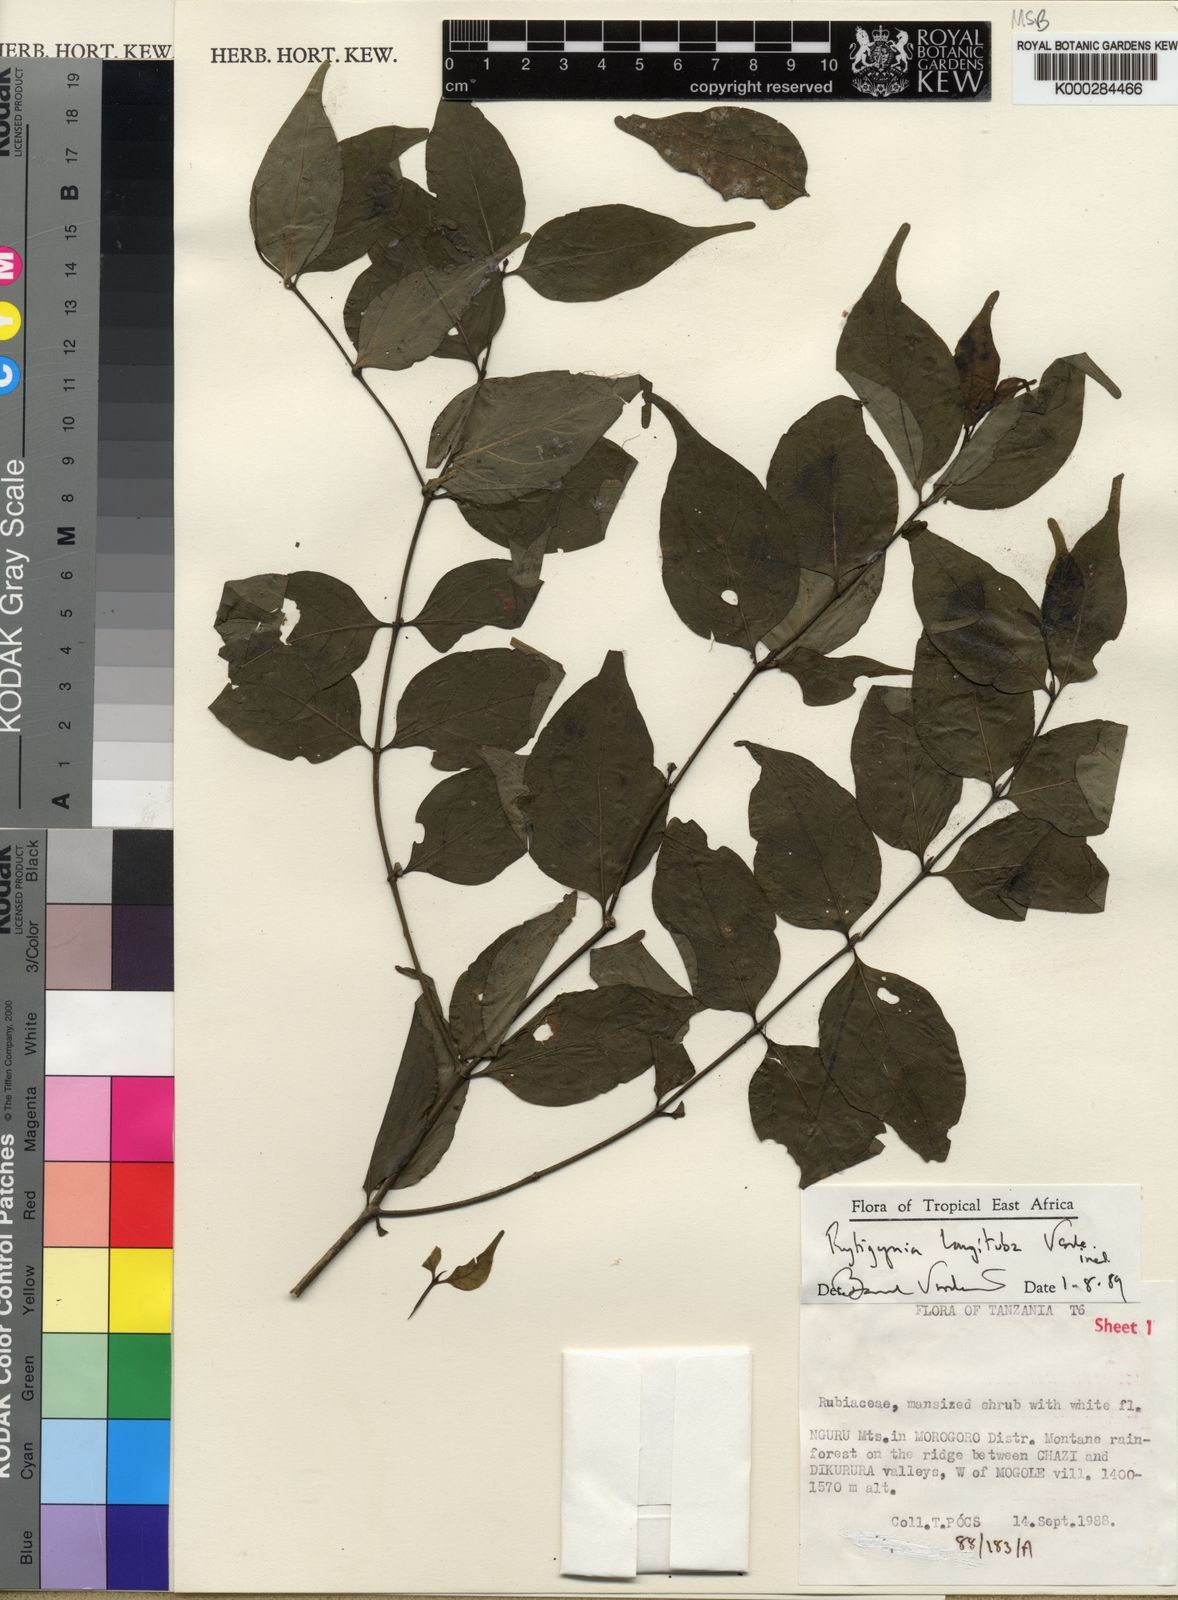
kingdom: Plantae
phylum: Tracheophyta
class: Magnoliopsida
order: Gentianales
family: Rubiaceae
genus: Rytigynia
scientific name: Rytigynia longituba
